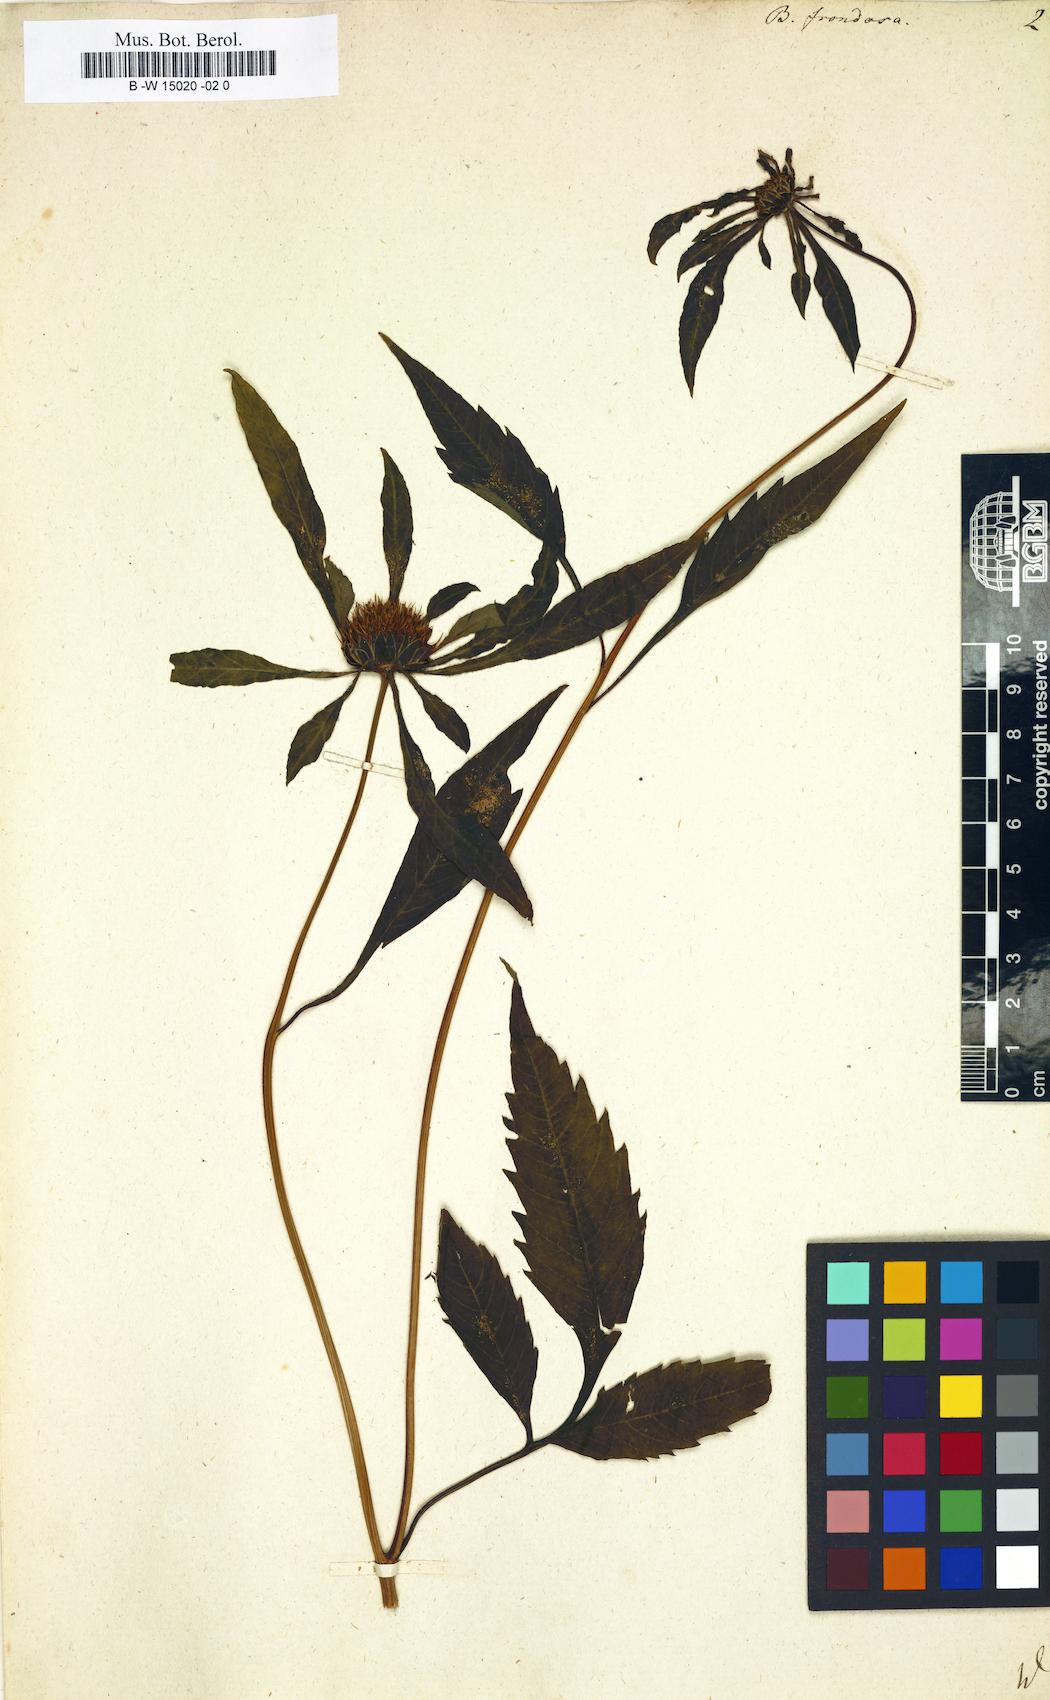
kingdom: Plantae
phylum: Tracheophyta
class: Magnoliopsida
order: Asterales
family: Asteraceae
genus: Bidens
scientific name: Bidens frondosa
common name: Beggarticks
